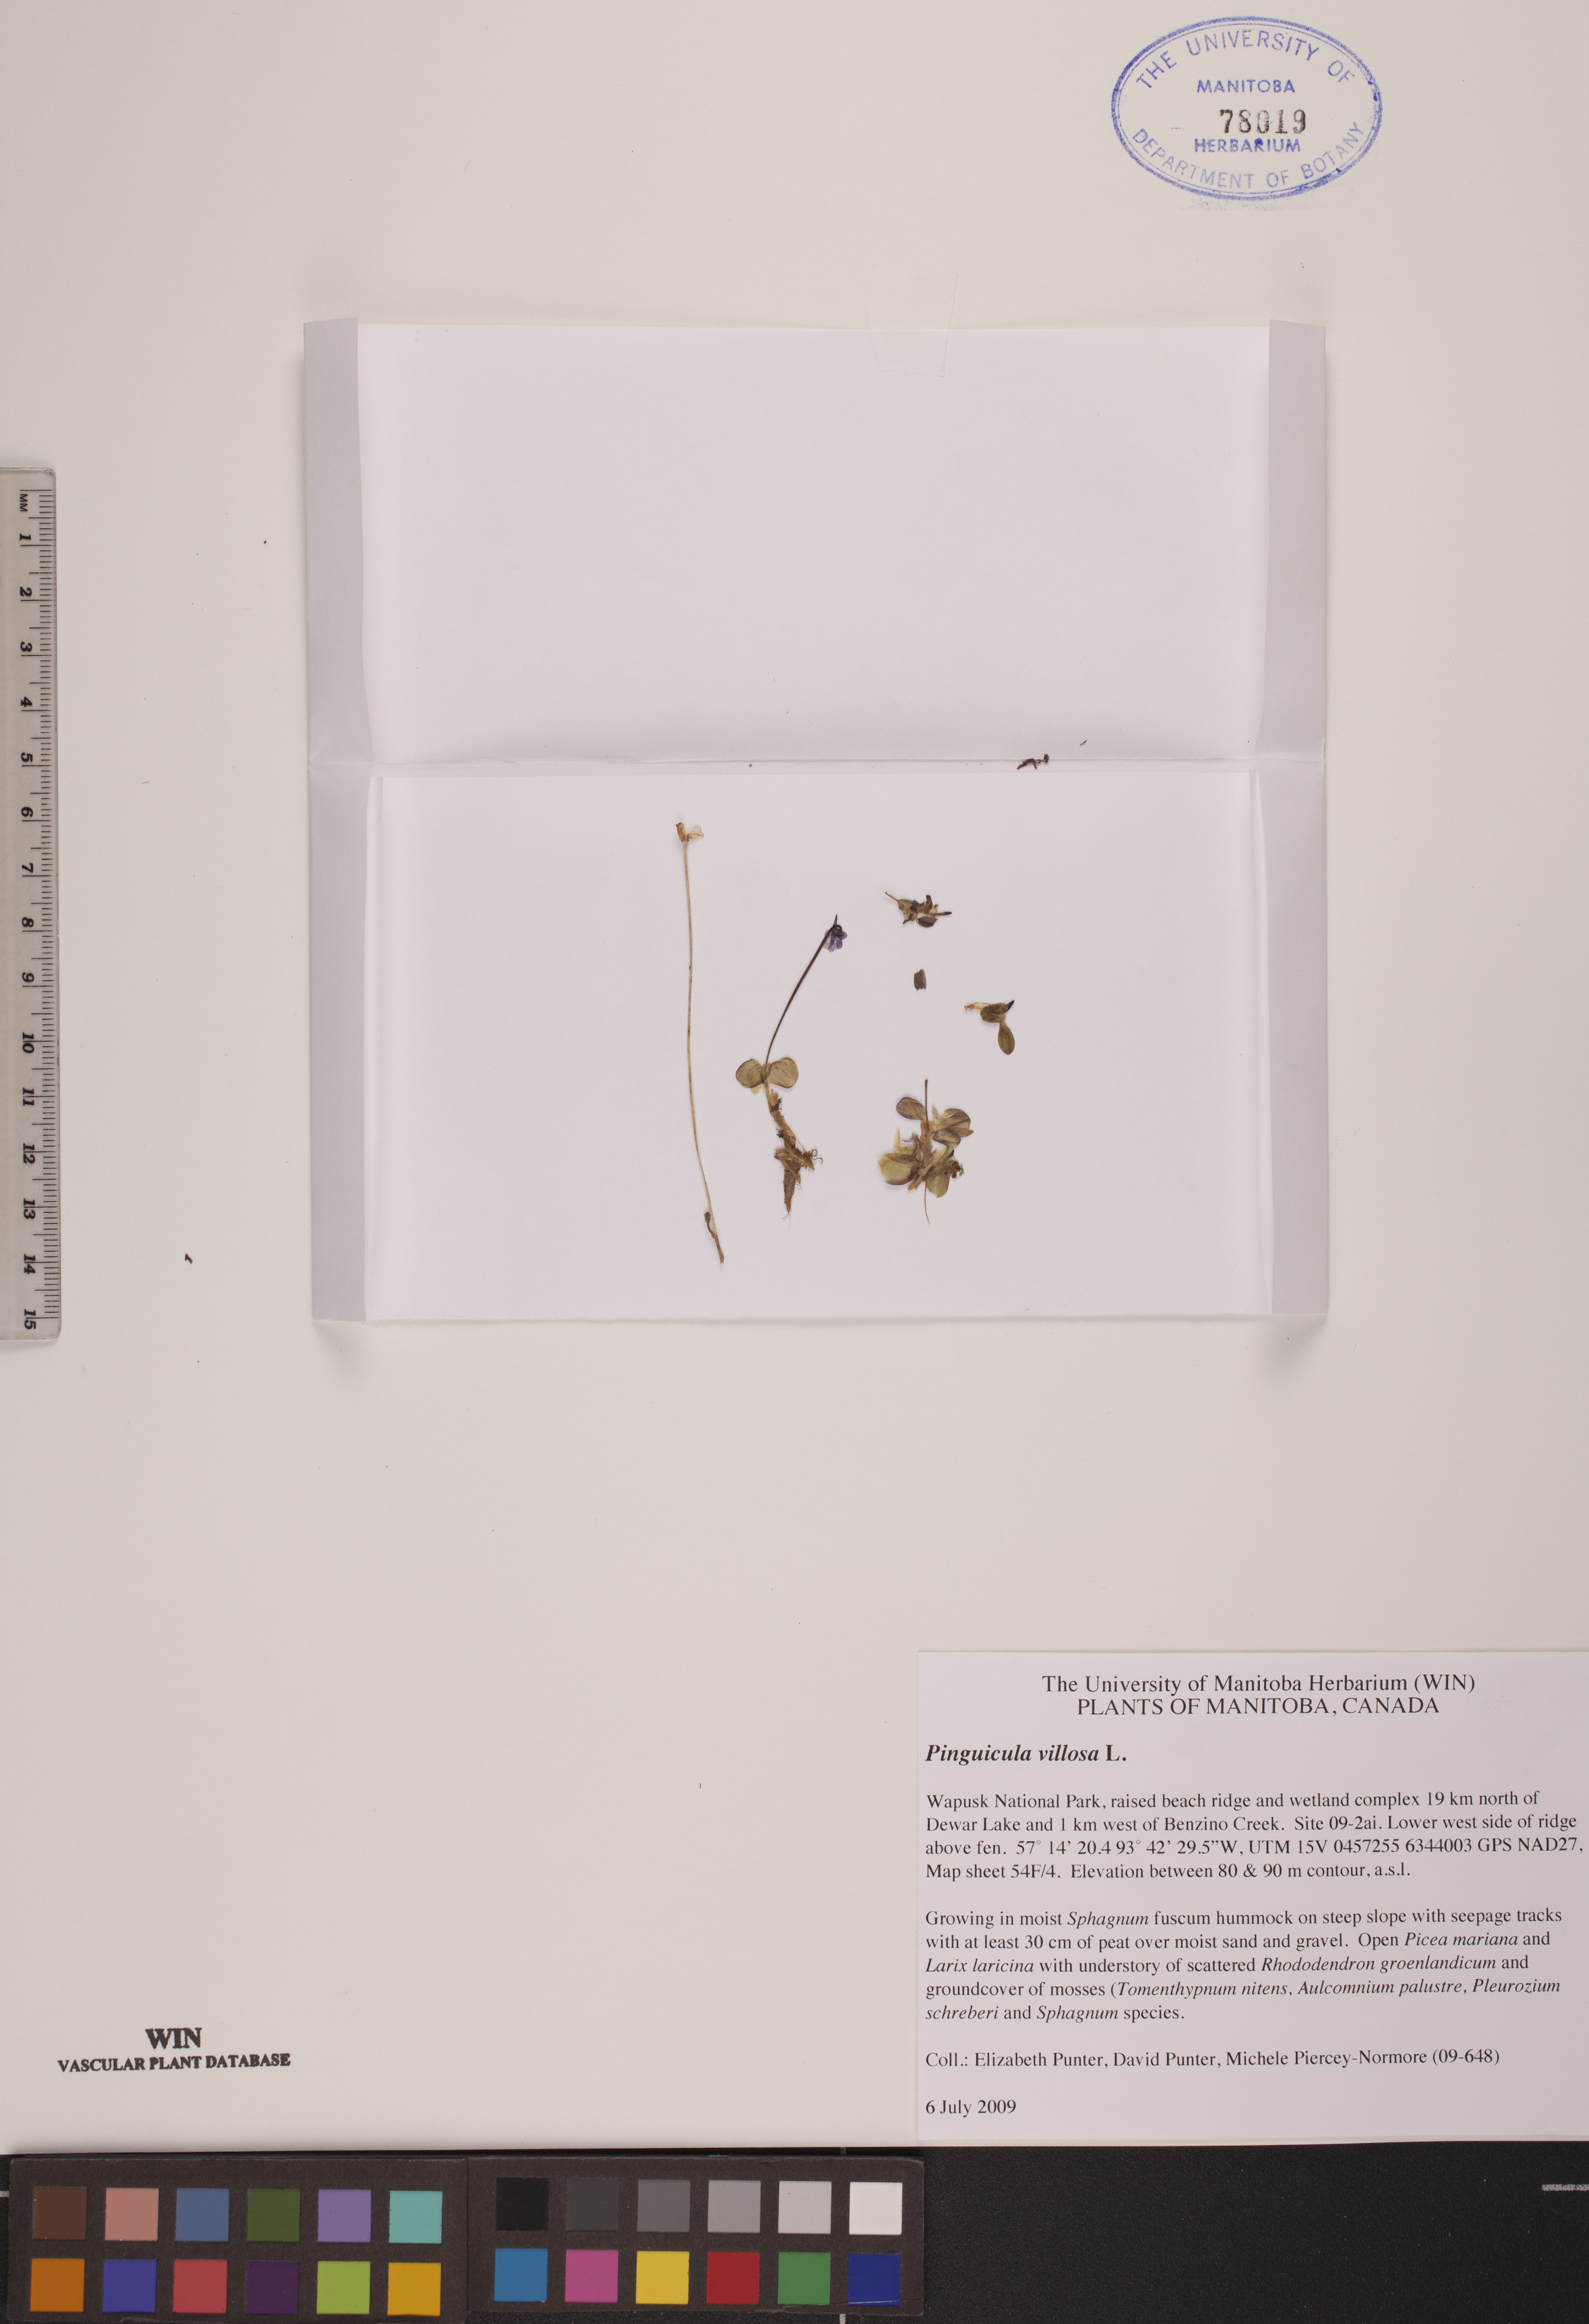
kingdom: Plantae
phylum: Tracheophyta
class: Magnoliopsida
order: Lamiales
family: Lentibulariaceae
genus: Pinguicula
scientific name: Pinguicula villosa
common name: Hairy butterwort
